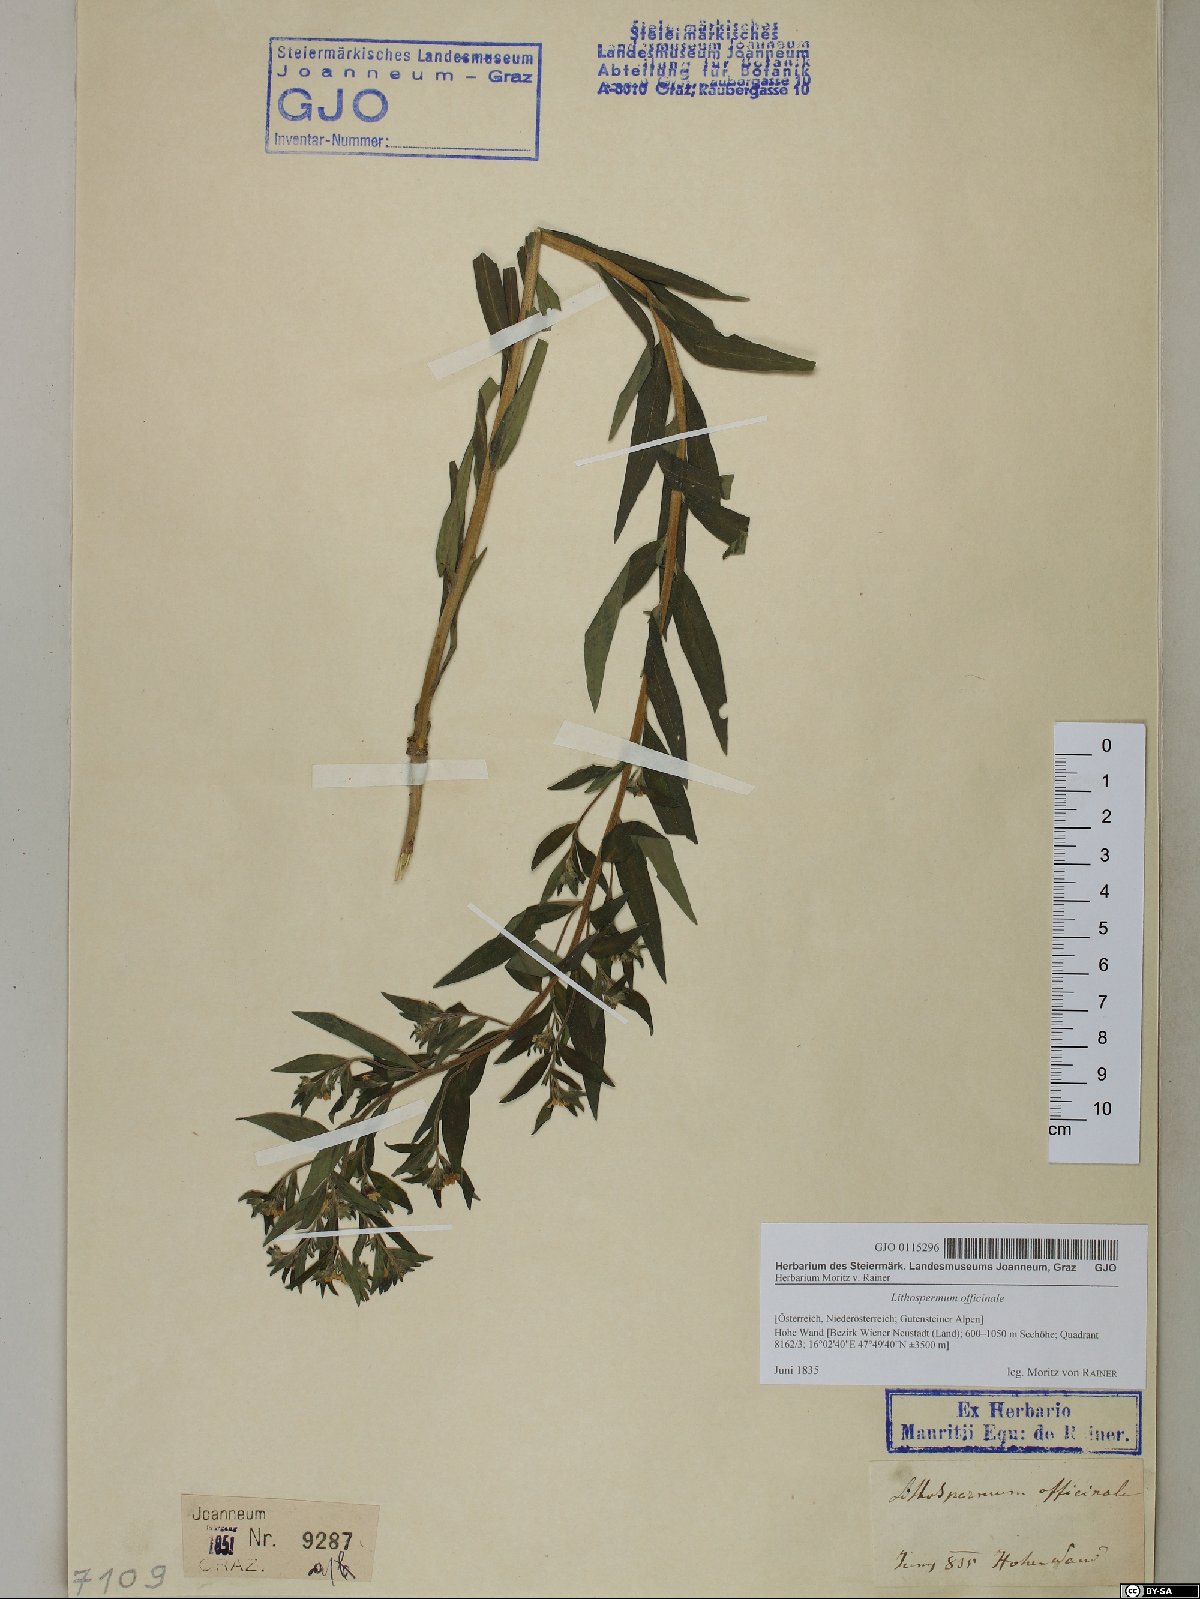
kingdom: Plantae
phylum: Tracheophyta
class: Magnoliopsida
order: Boraginales
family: Boraginaceae
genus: Lithospermum
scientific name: Lithospermum officinale
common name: Common gromwell
